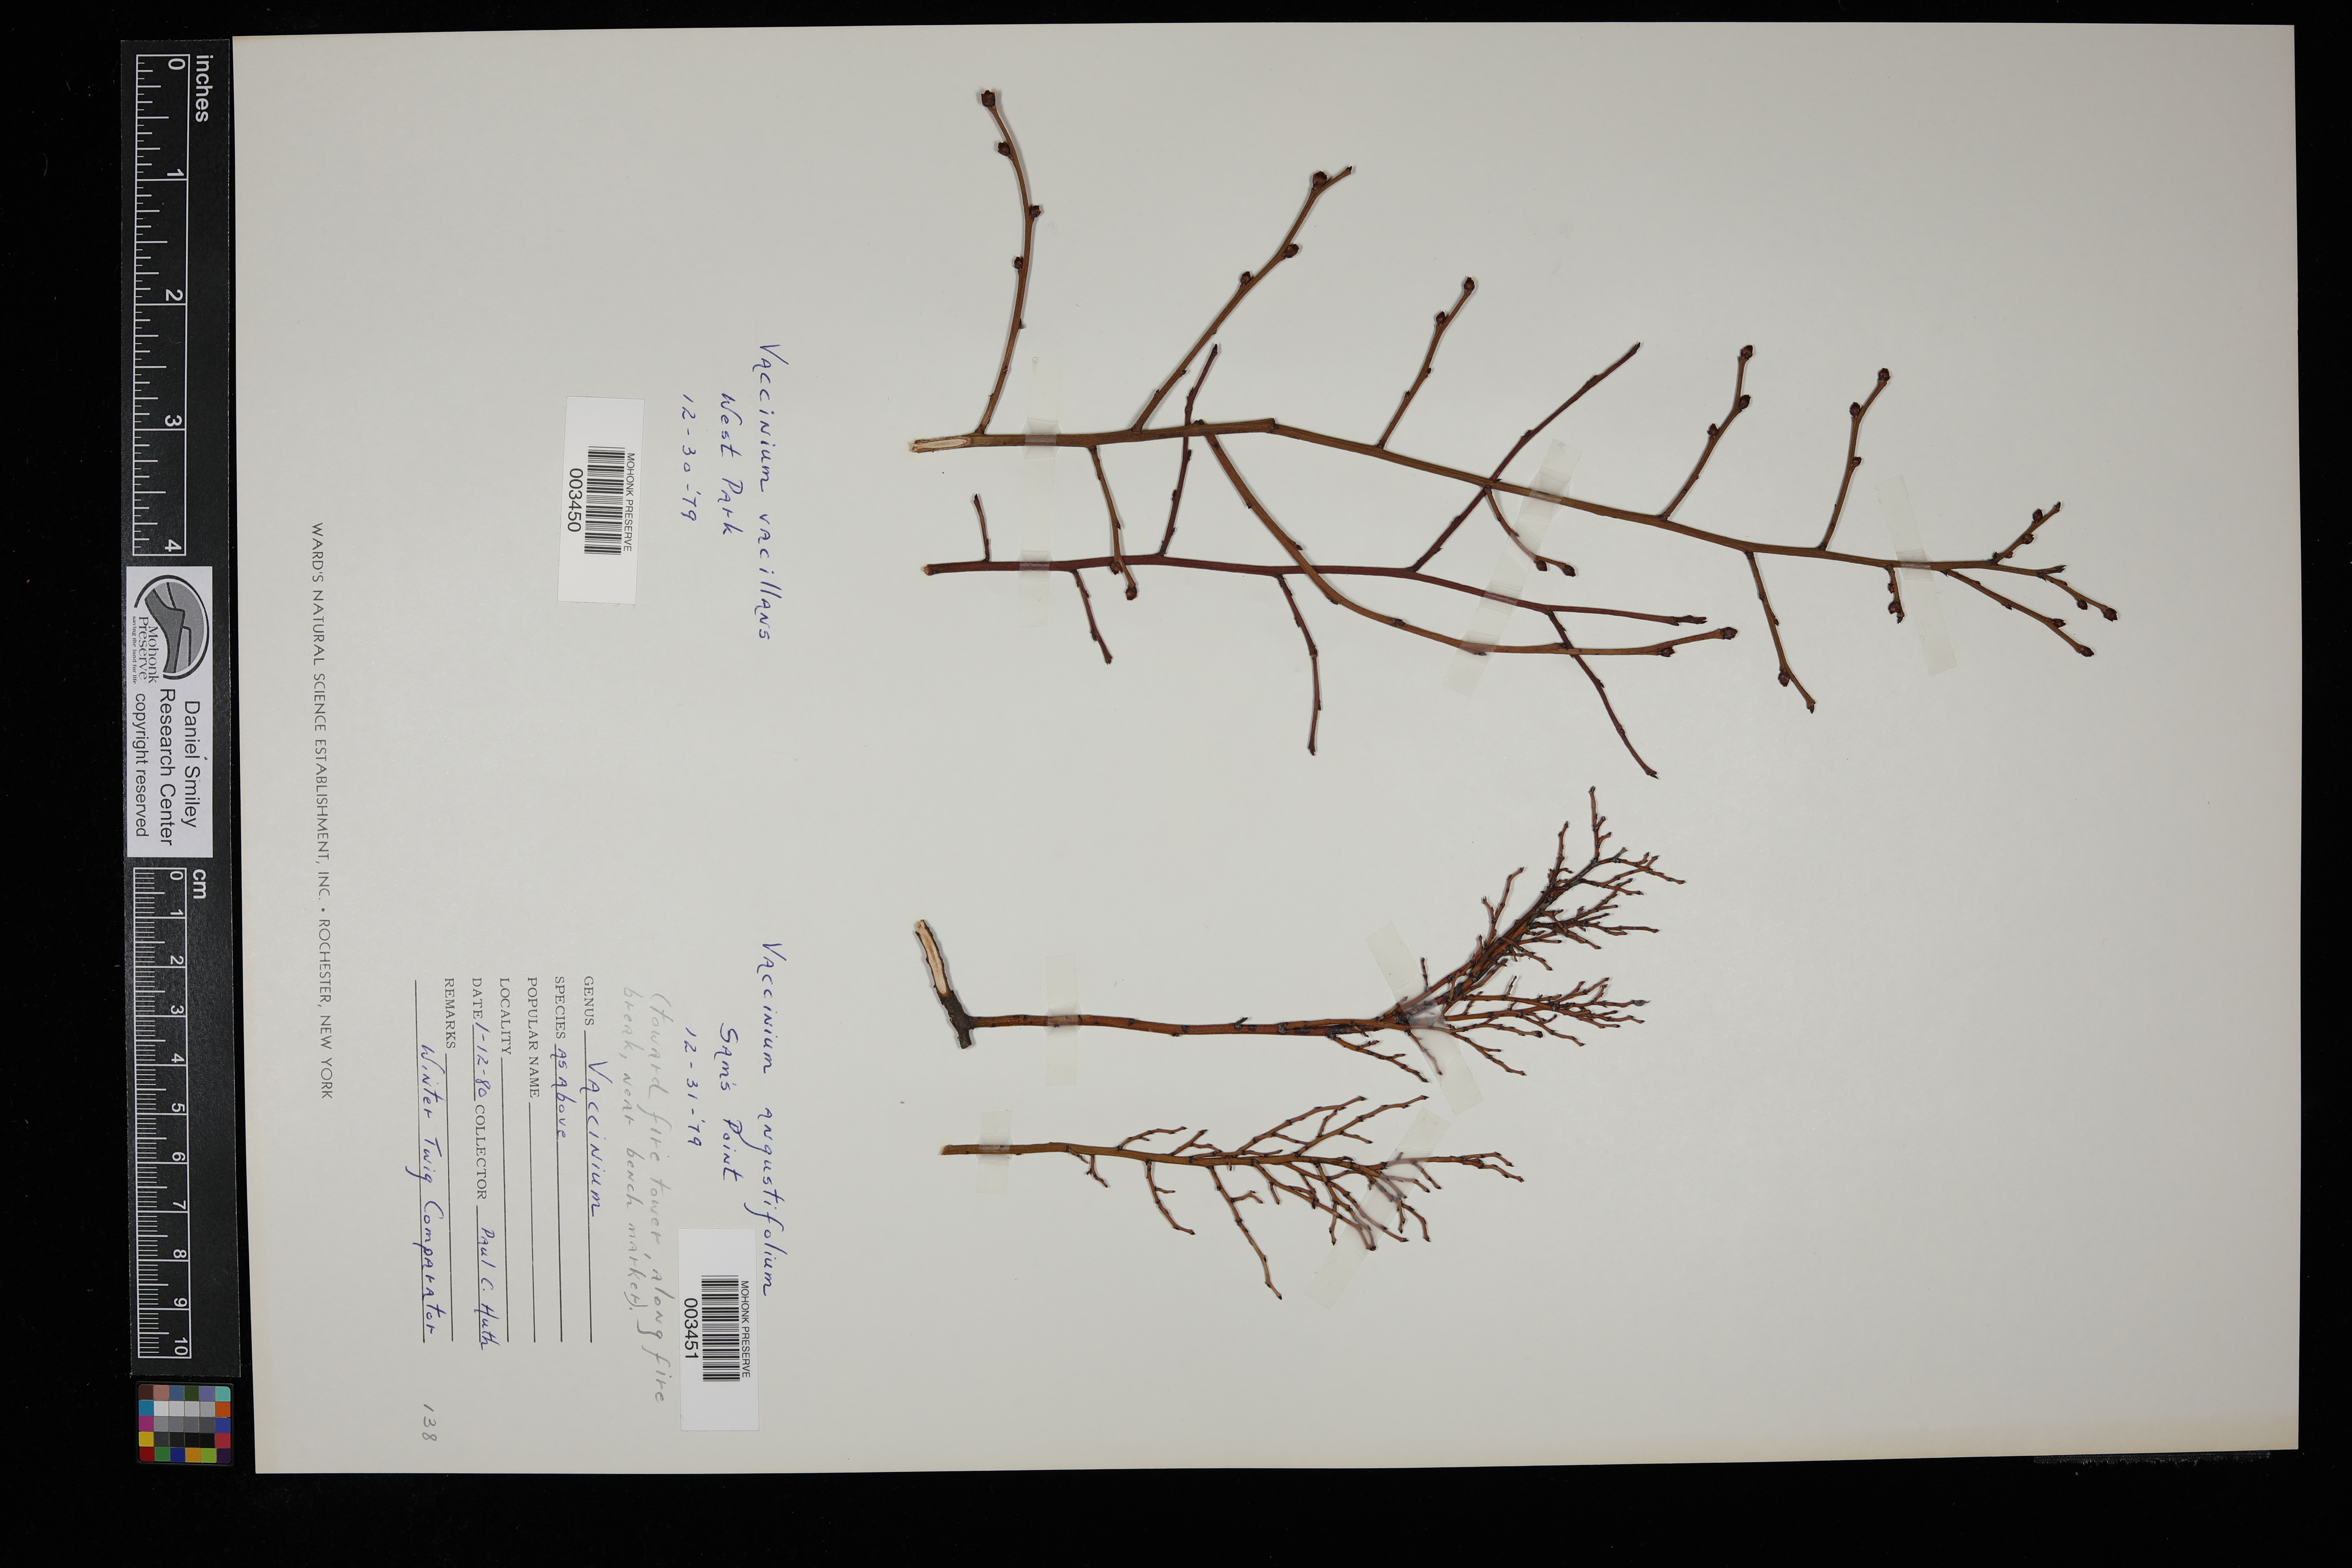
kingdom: Plantae
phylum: Tracheophyta
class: Magnoliopsida
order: Ericales
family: Ericaceae
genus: Vaccinium
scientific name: Vaccinium angustifolium
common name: Early lowbush blueberry
